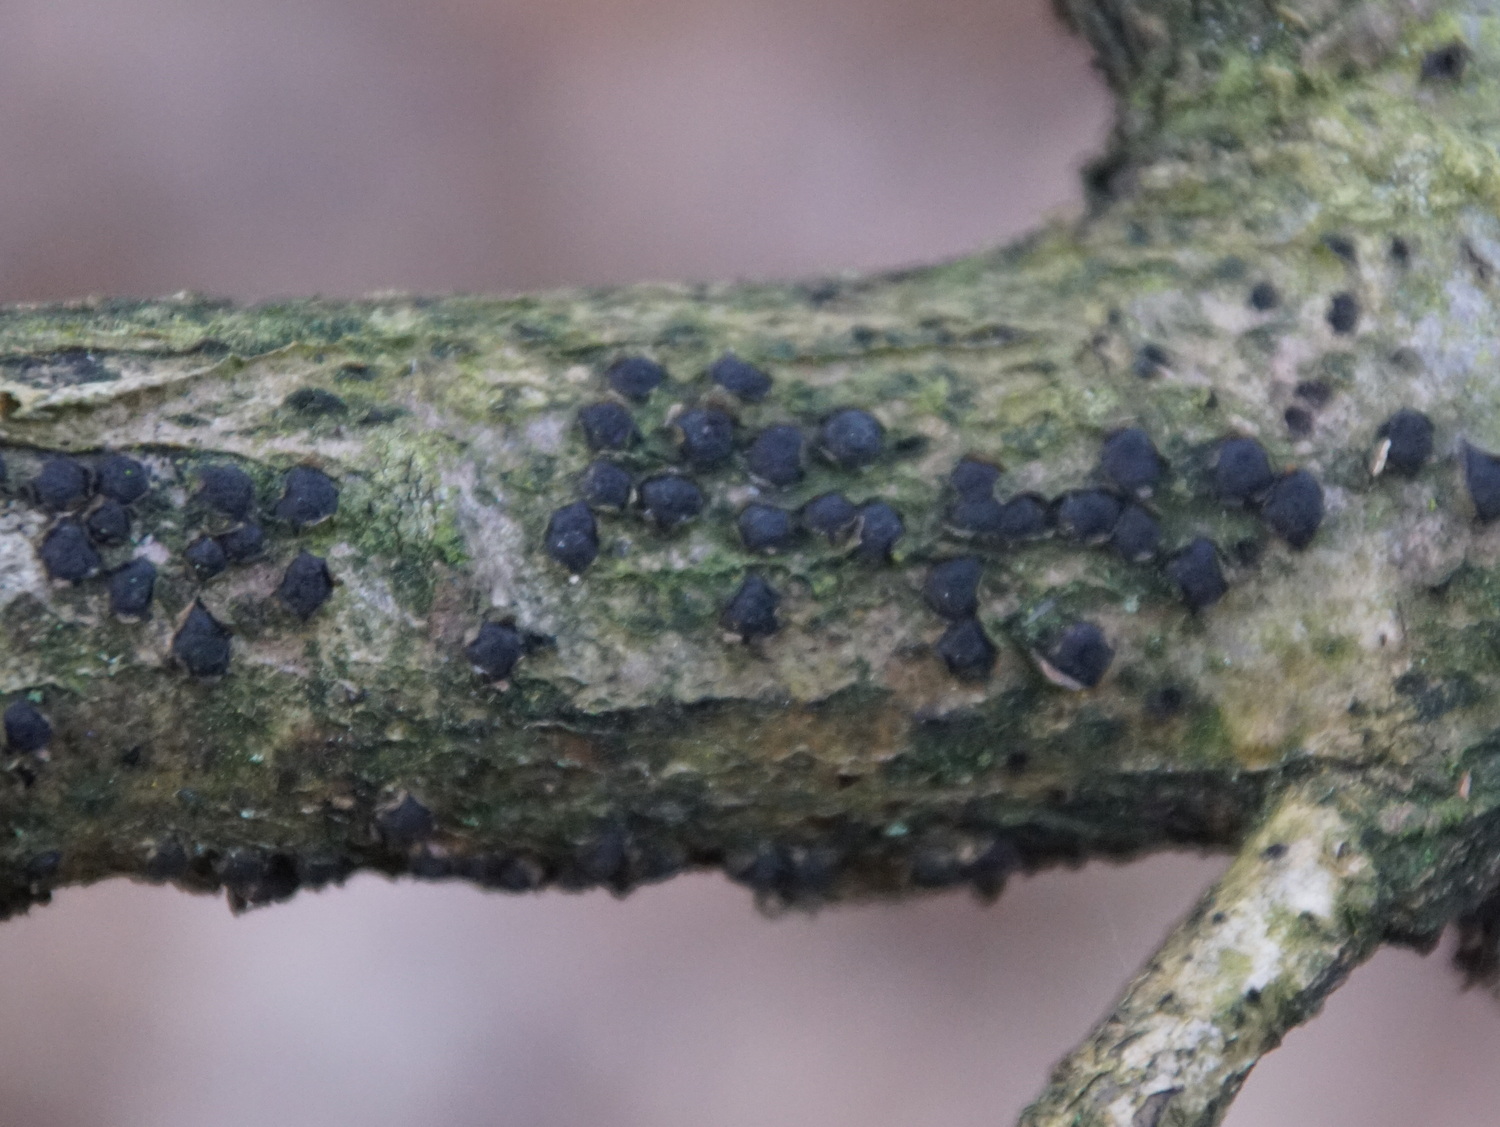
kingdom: Fungi
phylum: Ascomycota
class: Sordariomycetes
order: Xylariales
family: Diatrypaceae
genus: Diatrypella
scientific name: Diatrypella quercina
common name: ege-kulskorpe
